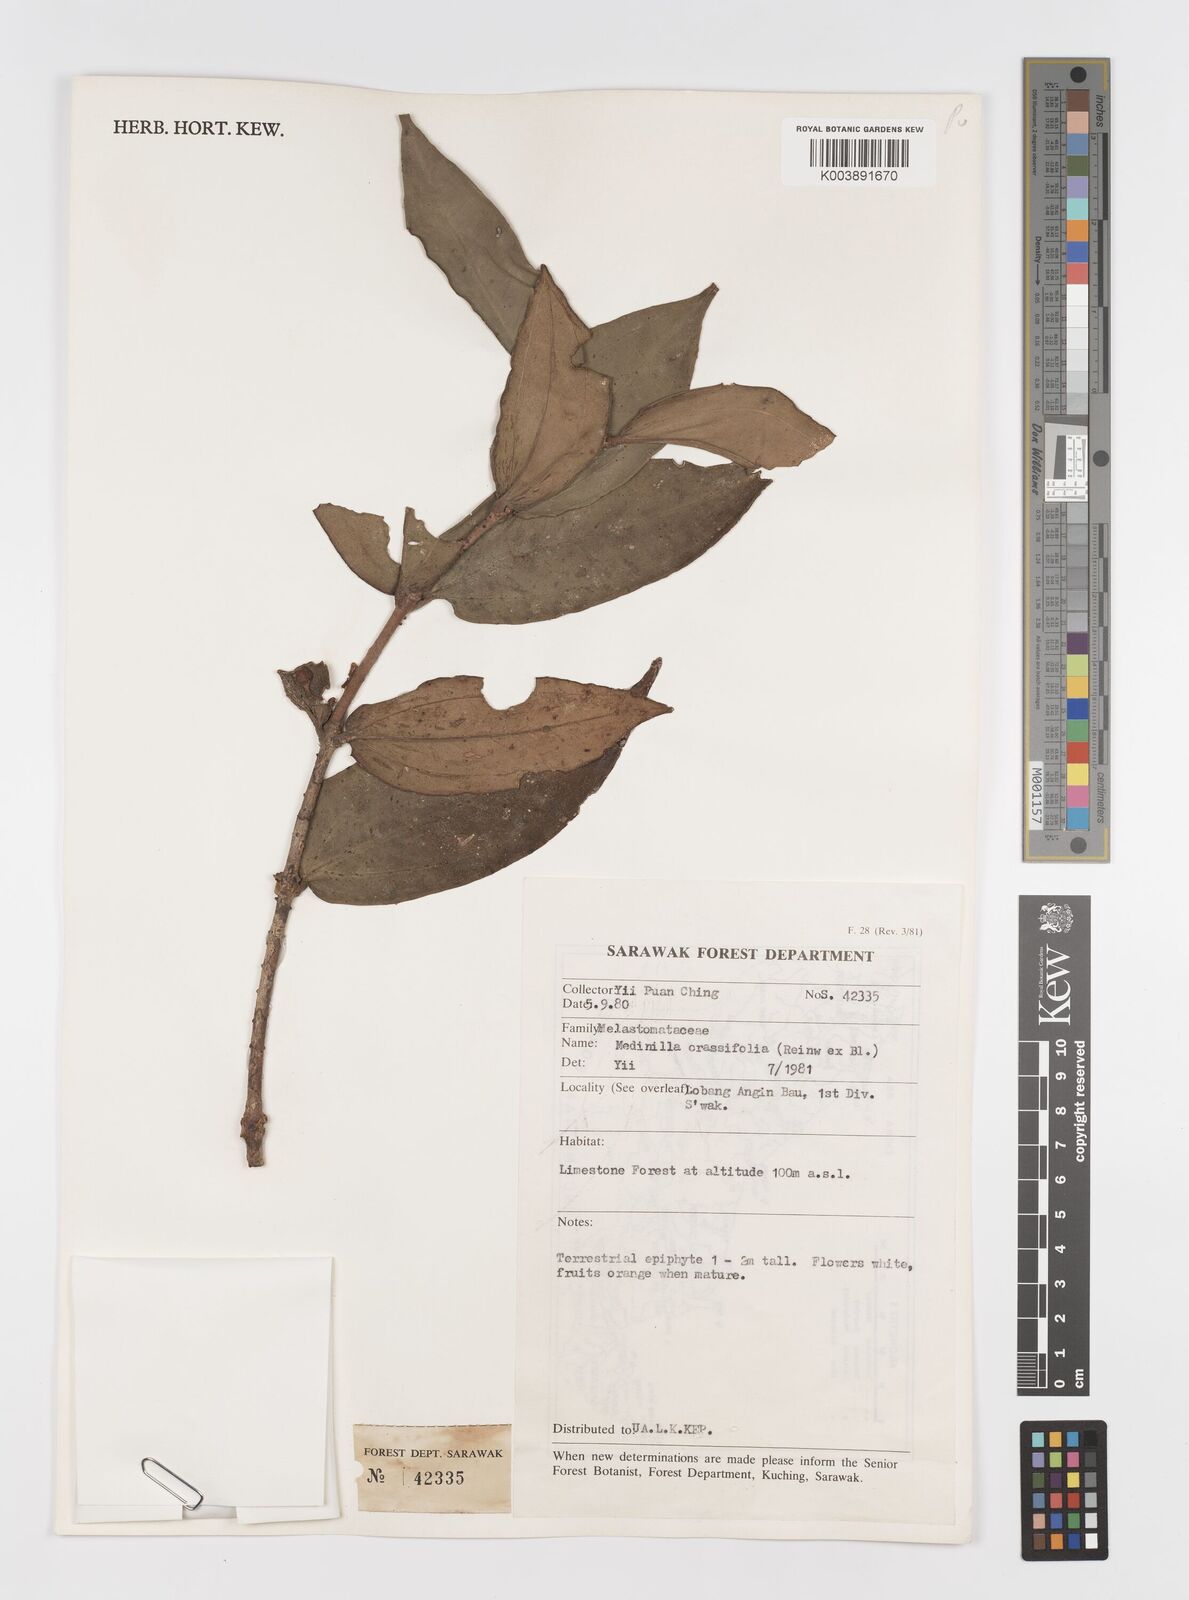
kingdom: Plantae
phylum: Tracheophyta
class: Magnoliopsida
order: Myrtales
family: Melastomataceae
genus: Medinilla
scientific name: Medinilla crassifolia
